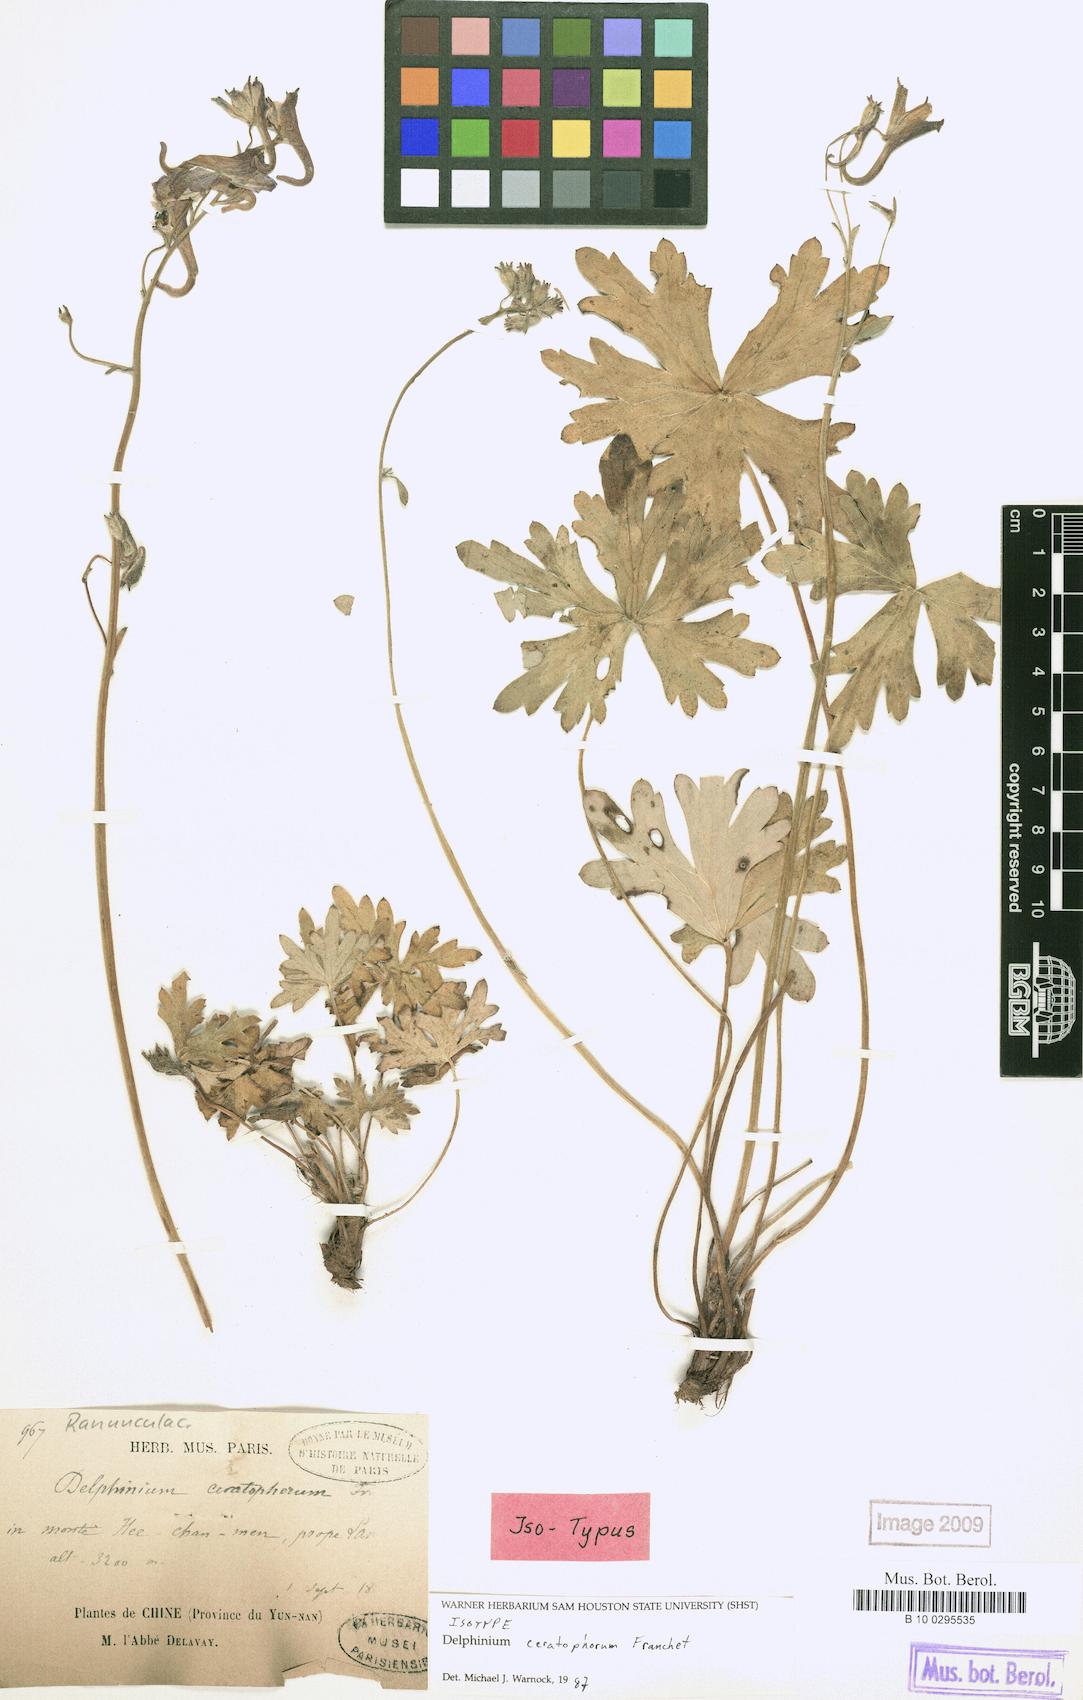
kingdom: Plantae
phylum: Tracheophyta
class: Magnoliopsida
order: Ranunculales
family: Ranunculaceae
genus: Delphinium
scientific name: Delphinium ceratophorum
